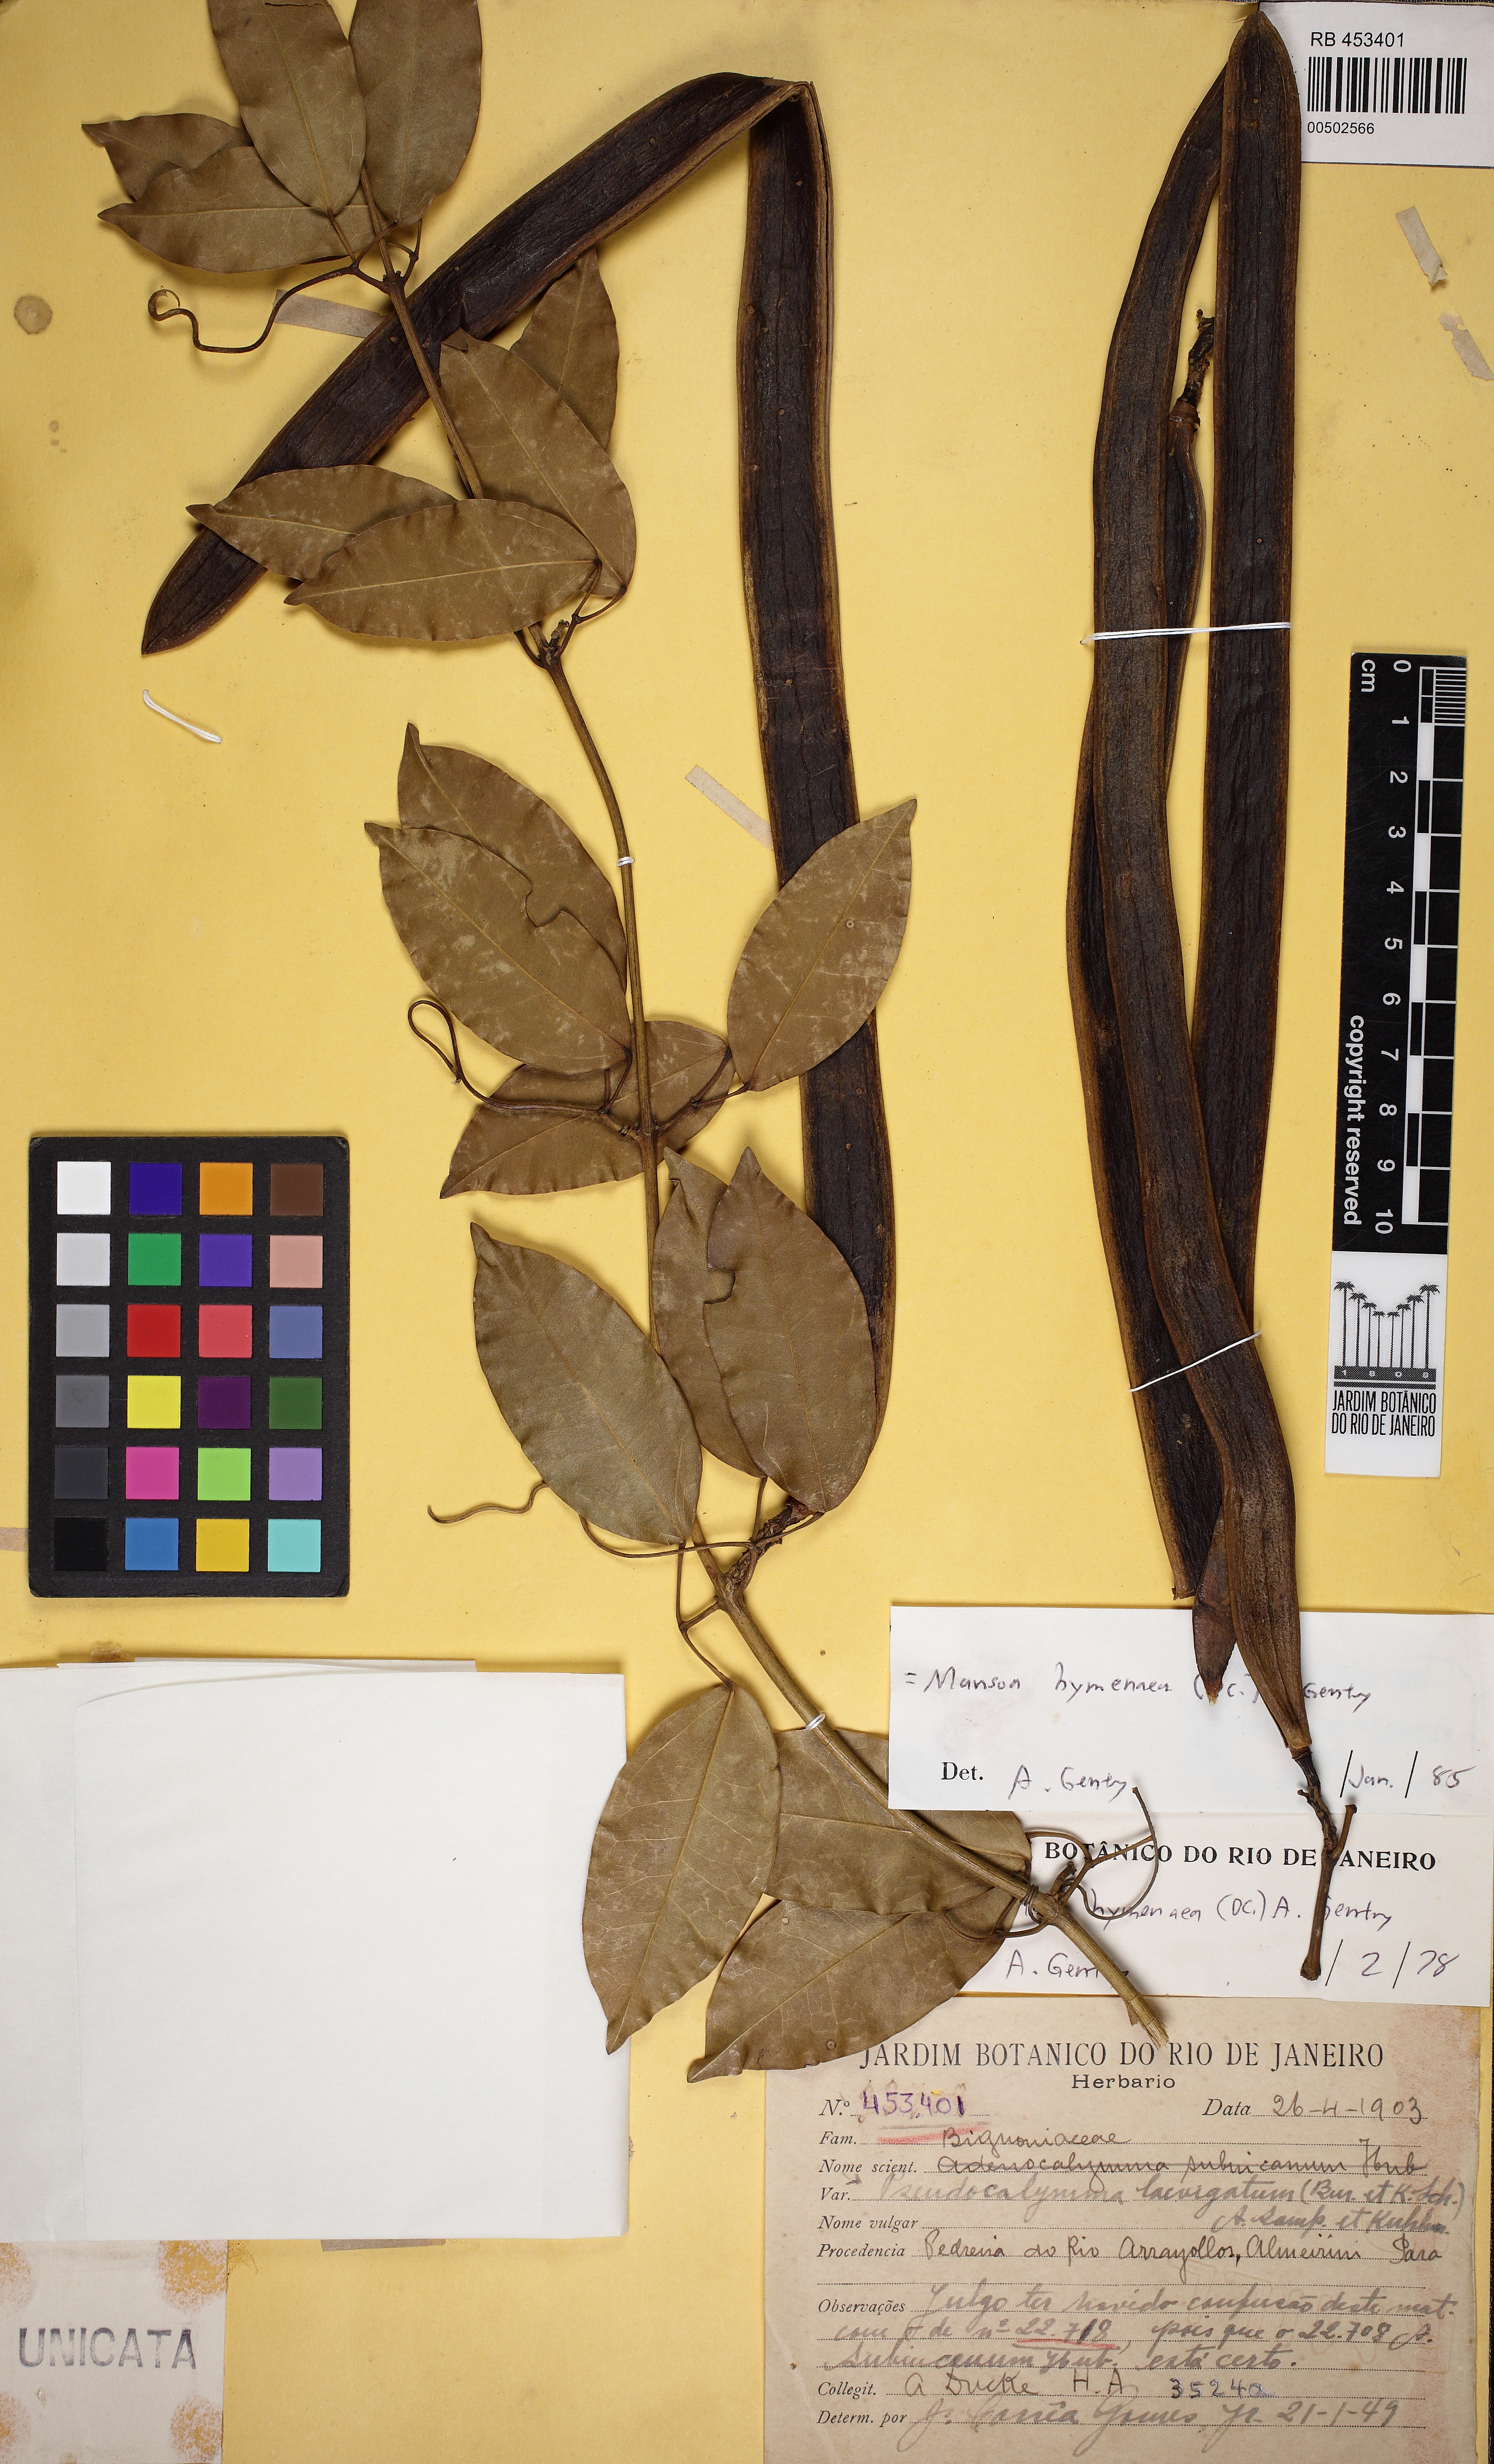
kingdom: Plantae
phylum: Tracheophyta
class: Magnoliopsida
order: Lamiales
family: Bignoniaceae
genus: Mansoa
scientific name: Mansoa hymenaea
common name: Membranous garlic vine
